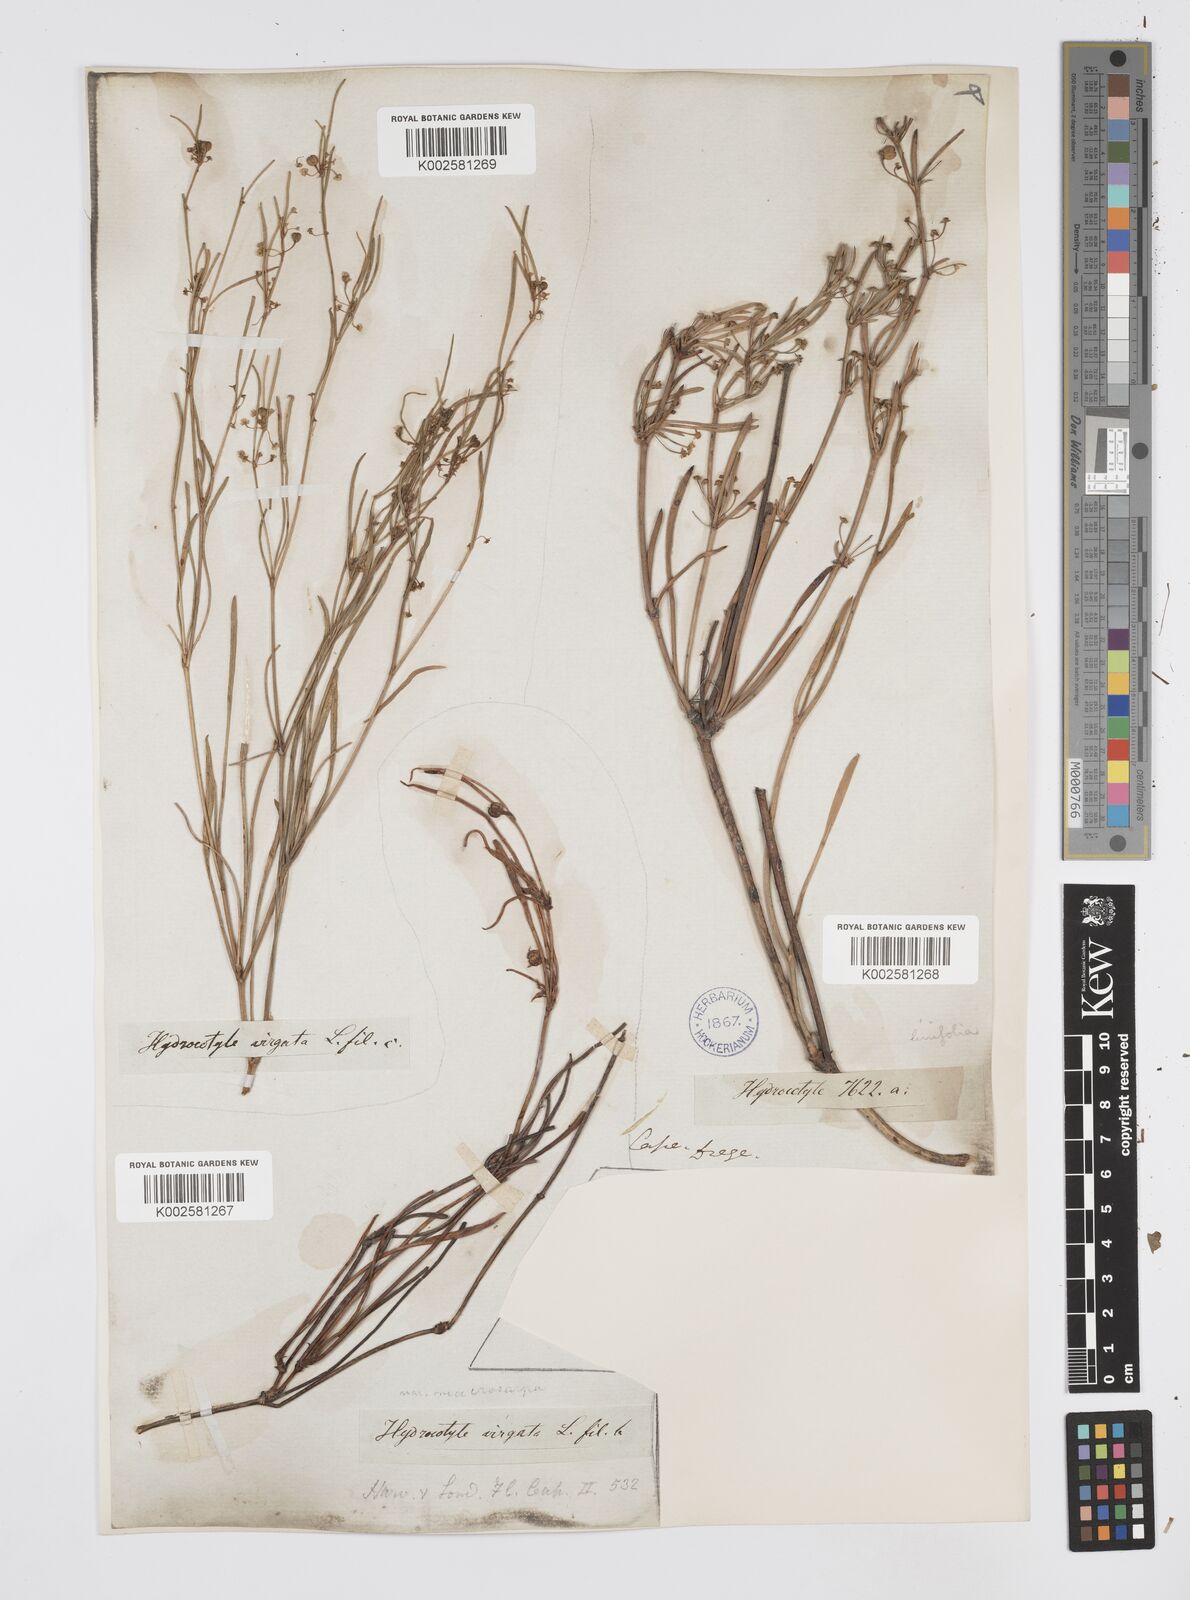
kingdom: Plantae
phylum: Tracheophyta
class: Magnoliopsida
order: Apiales
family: Apiaceae
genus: Centella
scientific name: Centella linifolia
